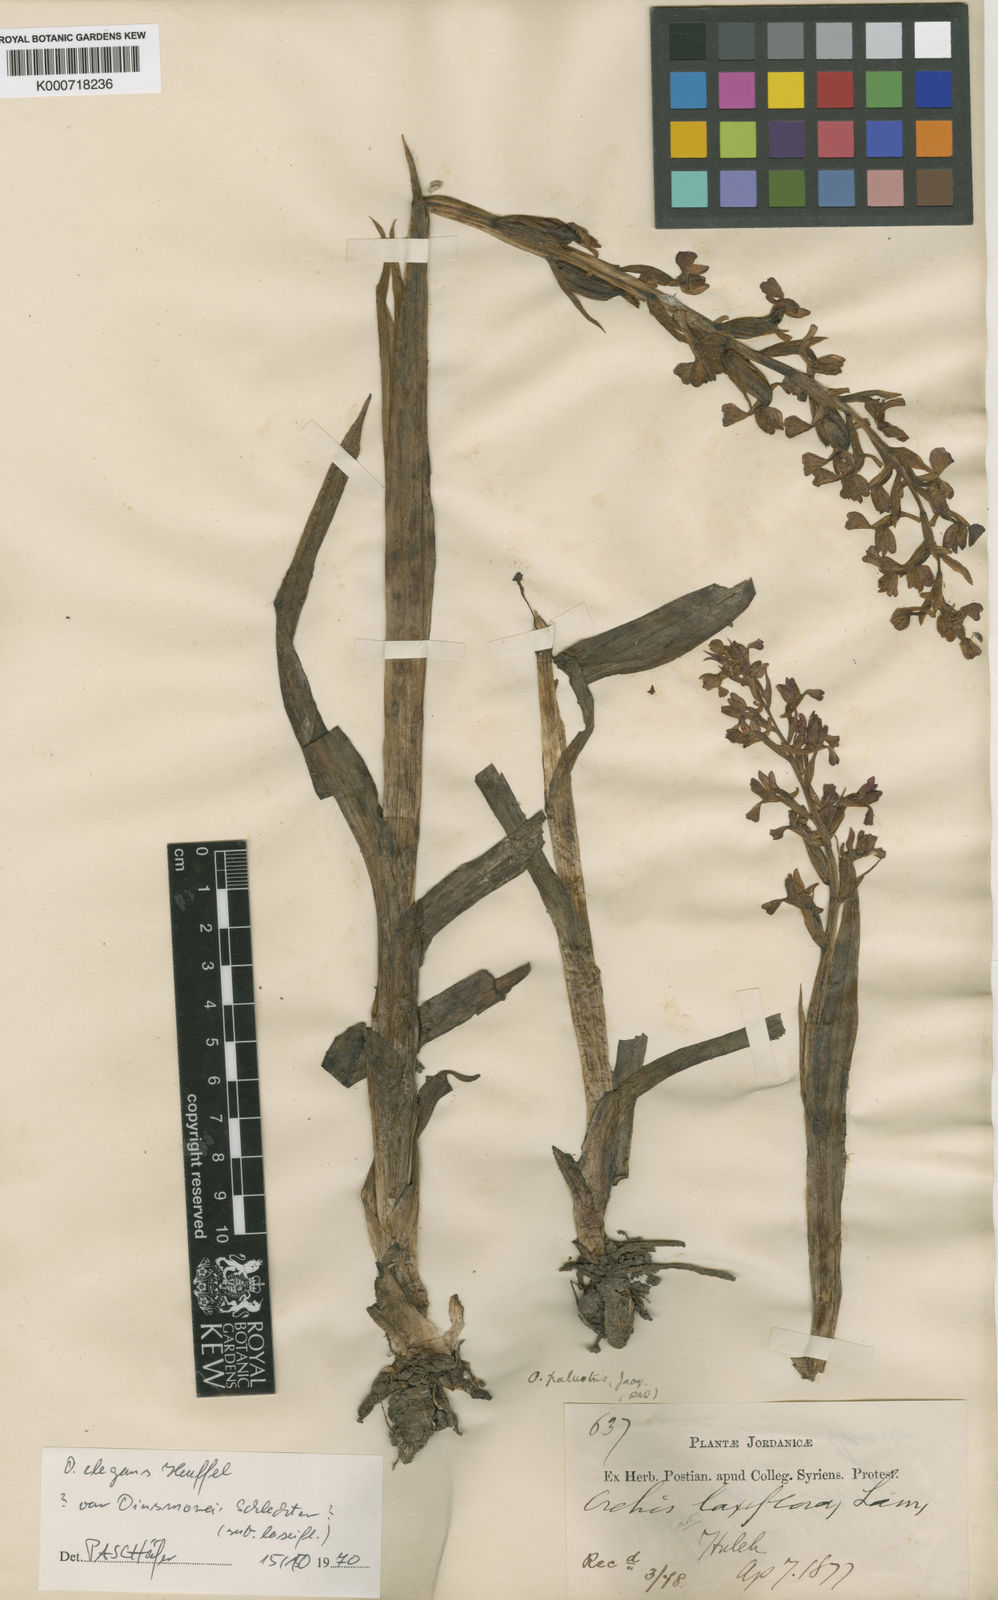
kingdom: Plantae
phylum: Tracheophyta
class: Liliopsida
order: Asparagales
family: Orchidaceae
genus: Anacamptis
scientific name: Anacamptis palustris
